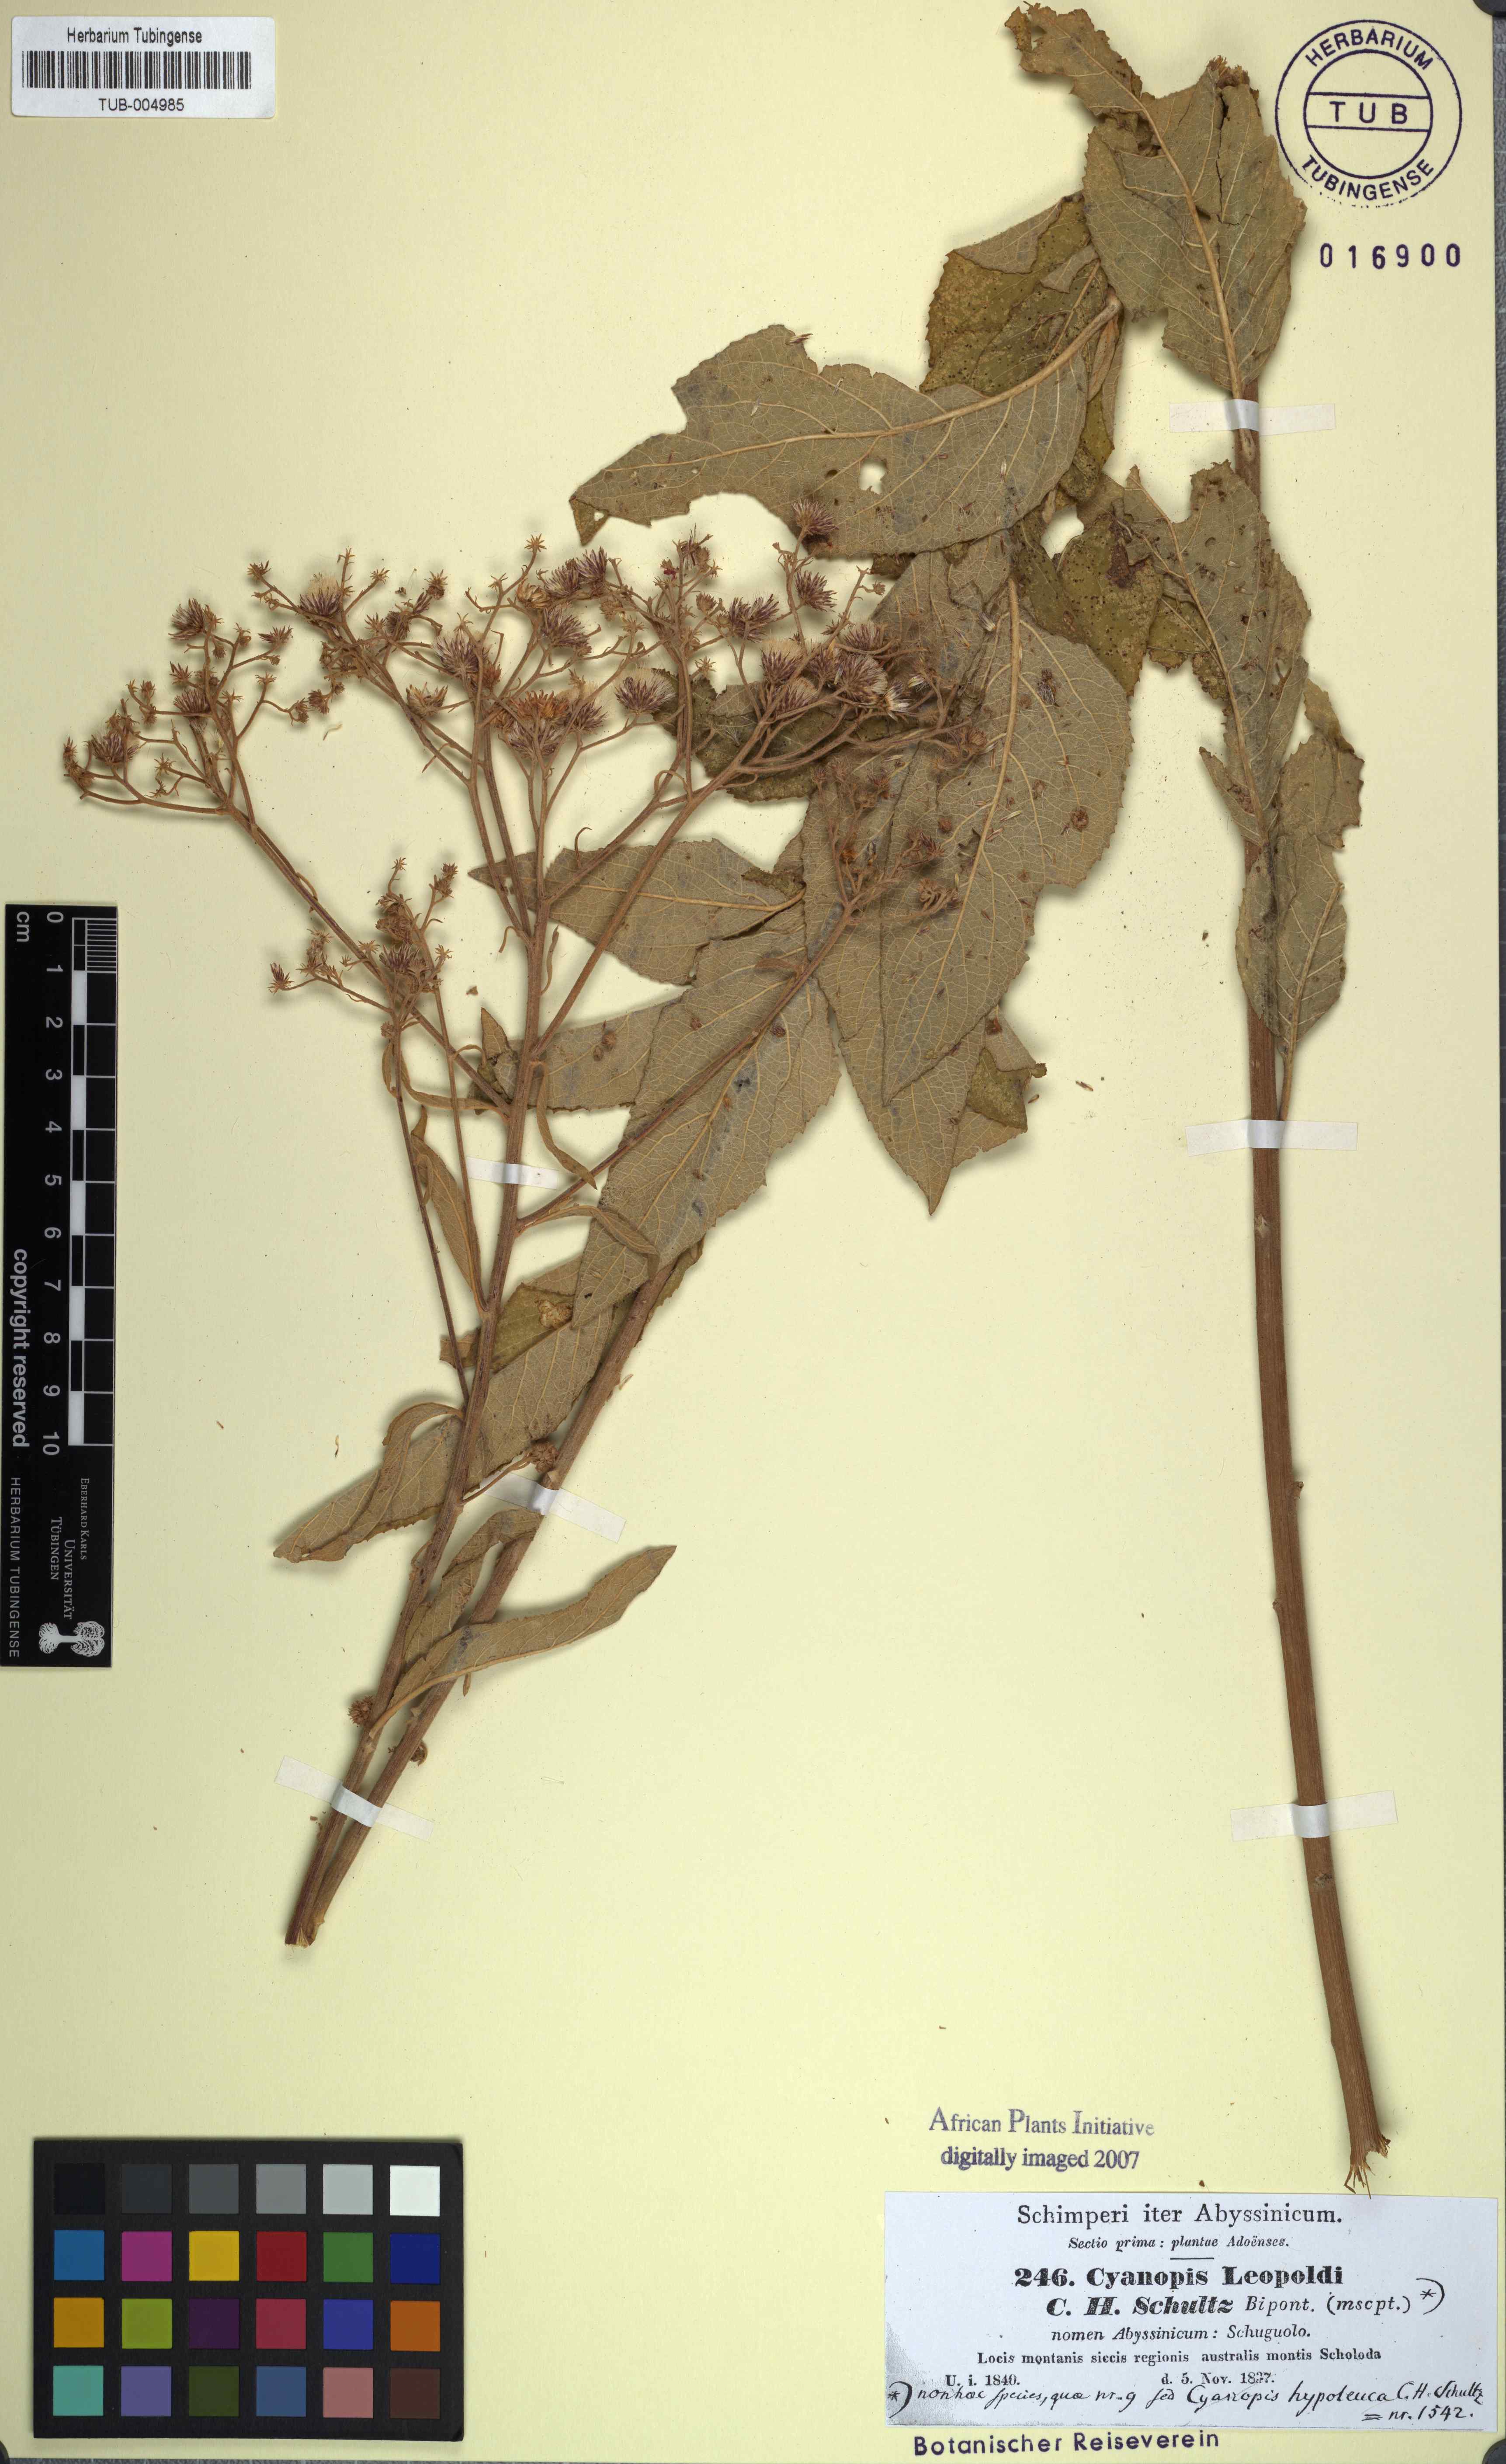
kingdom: Plantae
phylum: Tracheophyta
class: Magnoliopsida
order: Asterales
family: Asteraceae
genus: Sinclairia
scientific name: Sinclairia caducifolia
